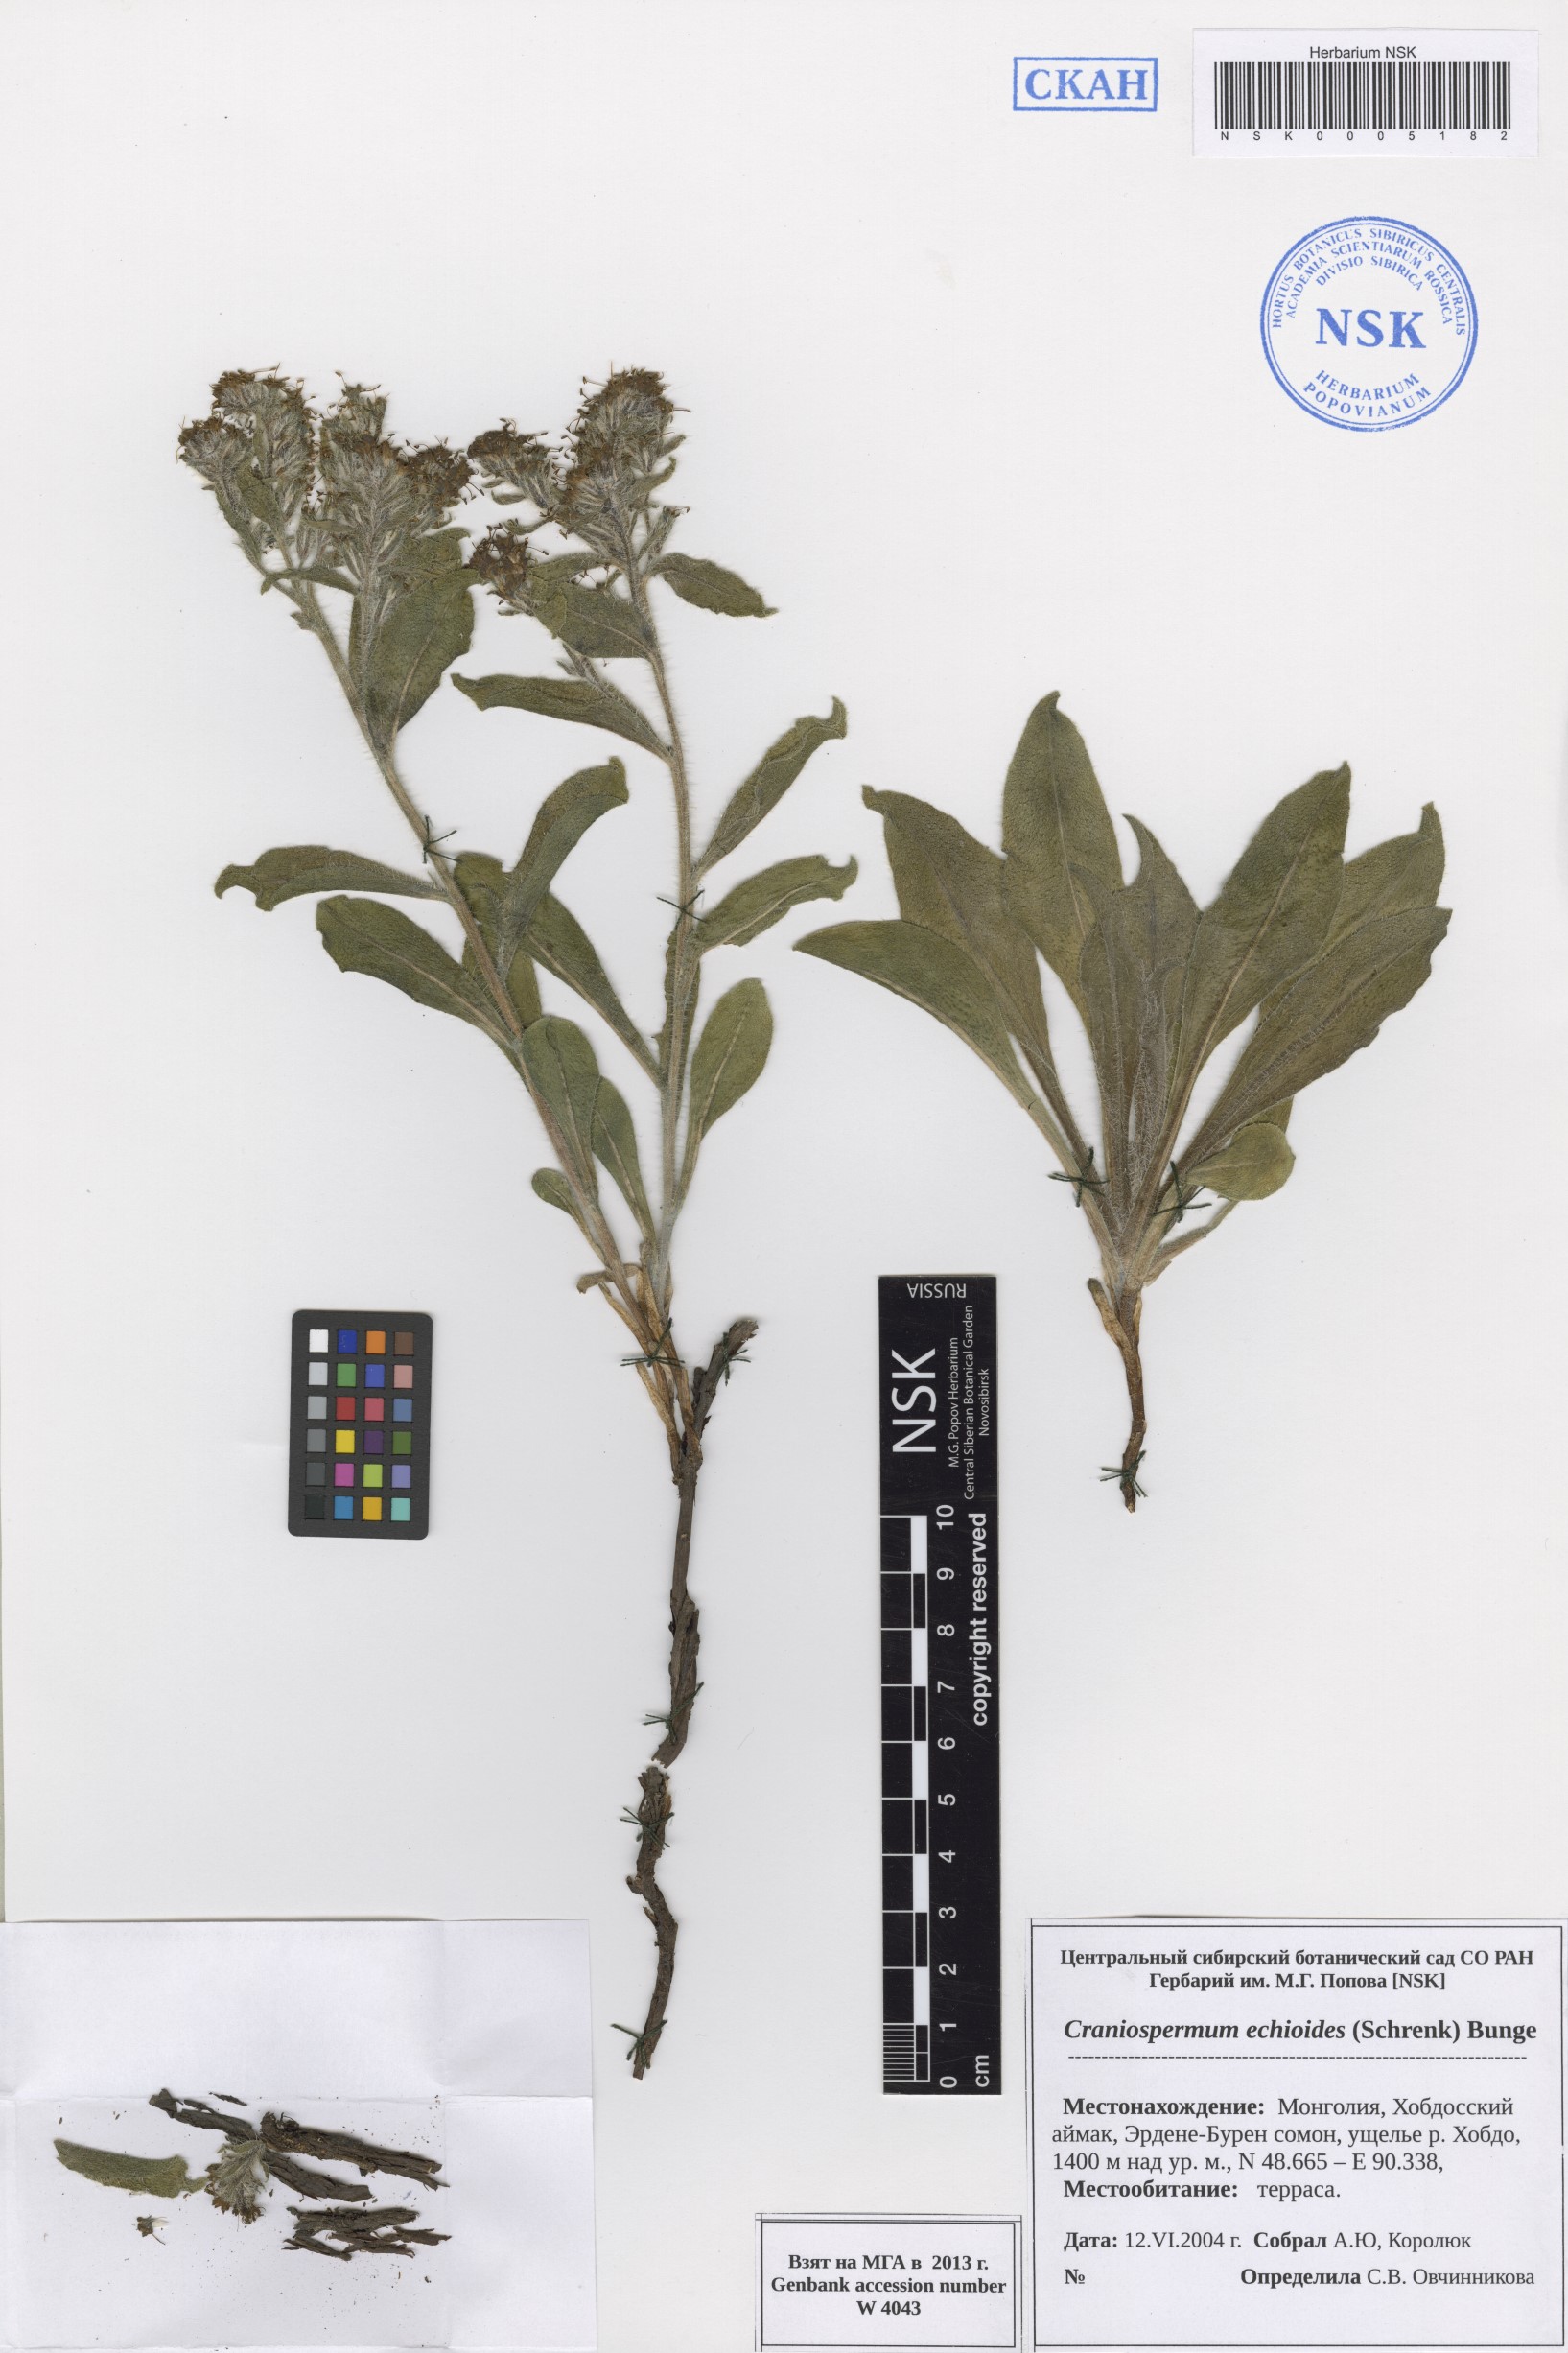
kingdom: Plantae
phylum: Tracheophyta
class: Magnoliopsida
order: Boraginales
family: Boraginaceae
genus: Craniospermum
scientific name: Craniospermum subvillosum
